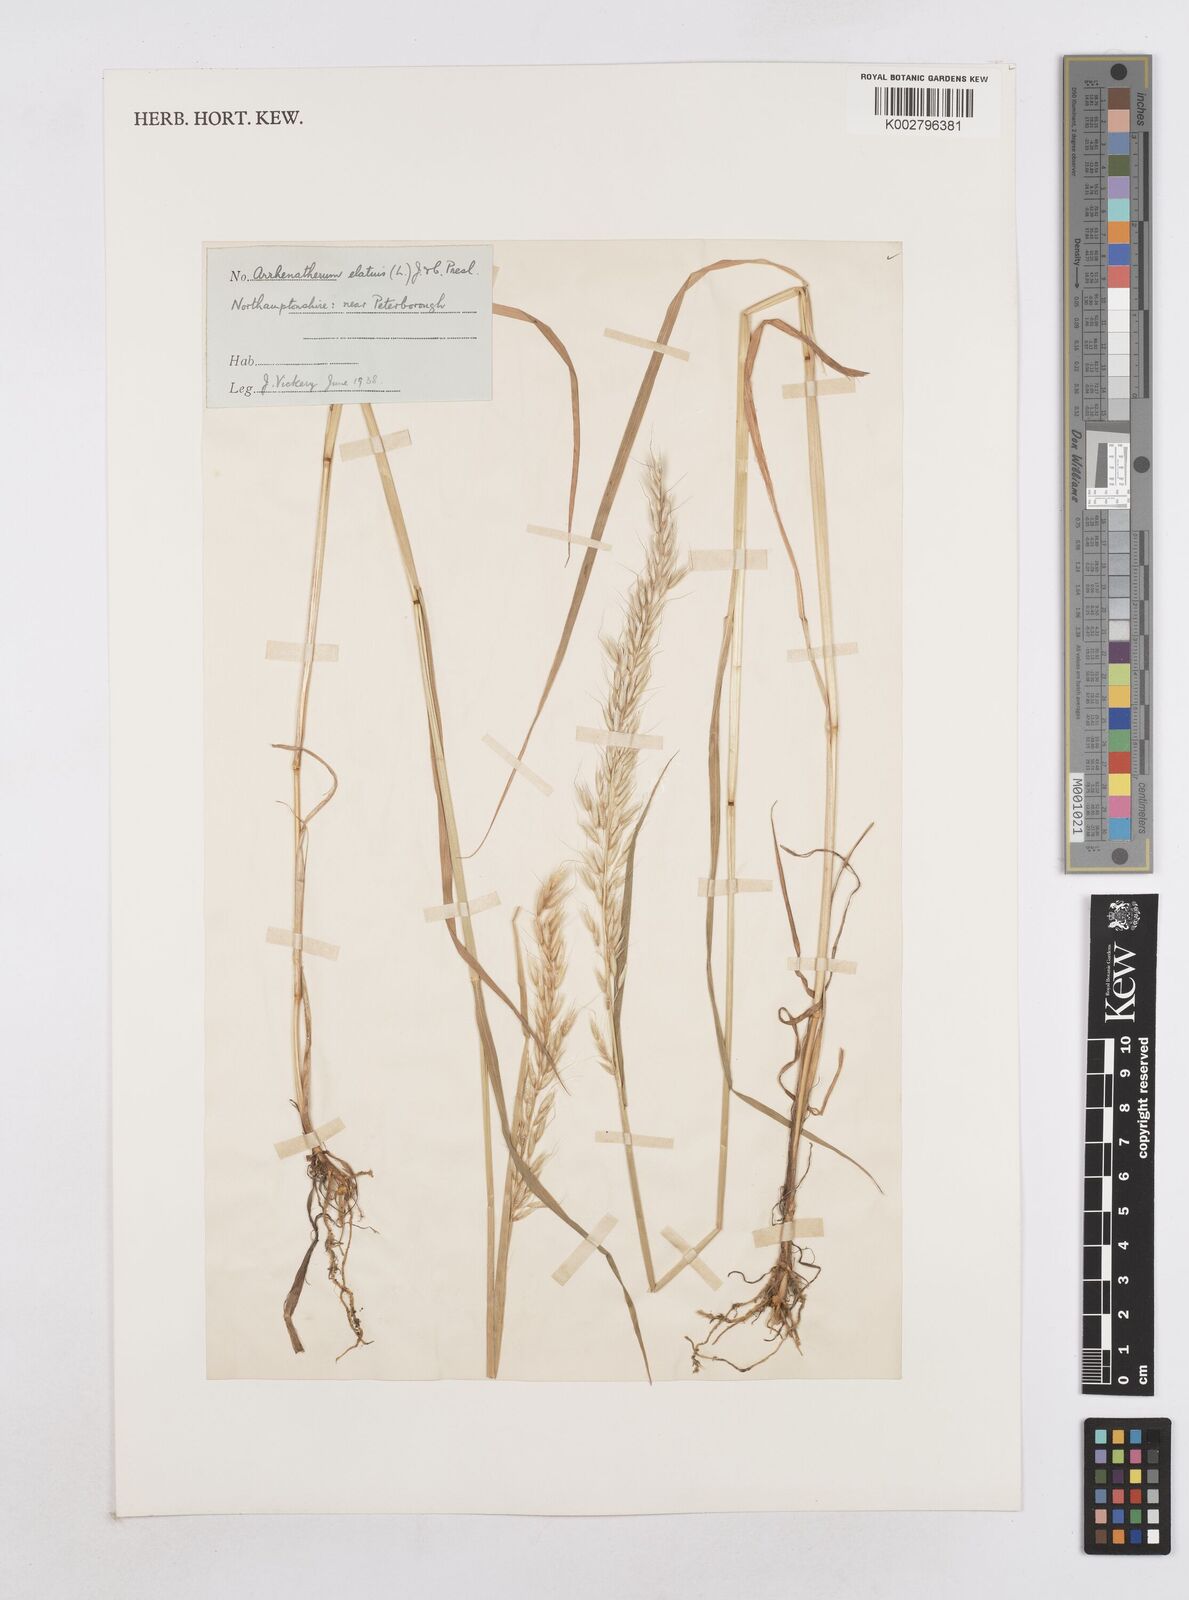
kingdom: Plantae
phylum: Tracheophyta
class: Liliopsida
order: Poales
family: Poaceae
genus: Arrhenatherum
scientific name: Arrhenatherum elatius
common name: Tall oatgrass
